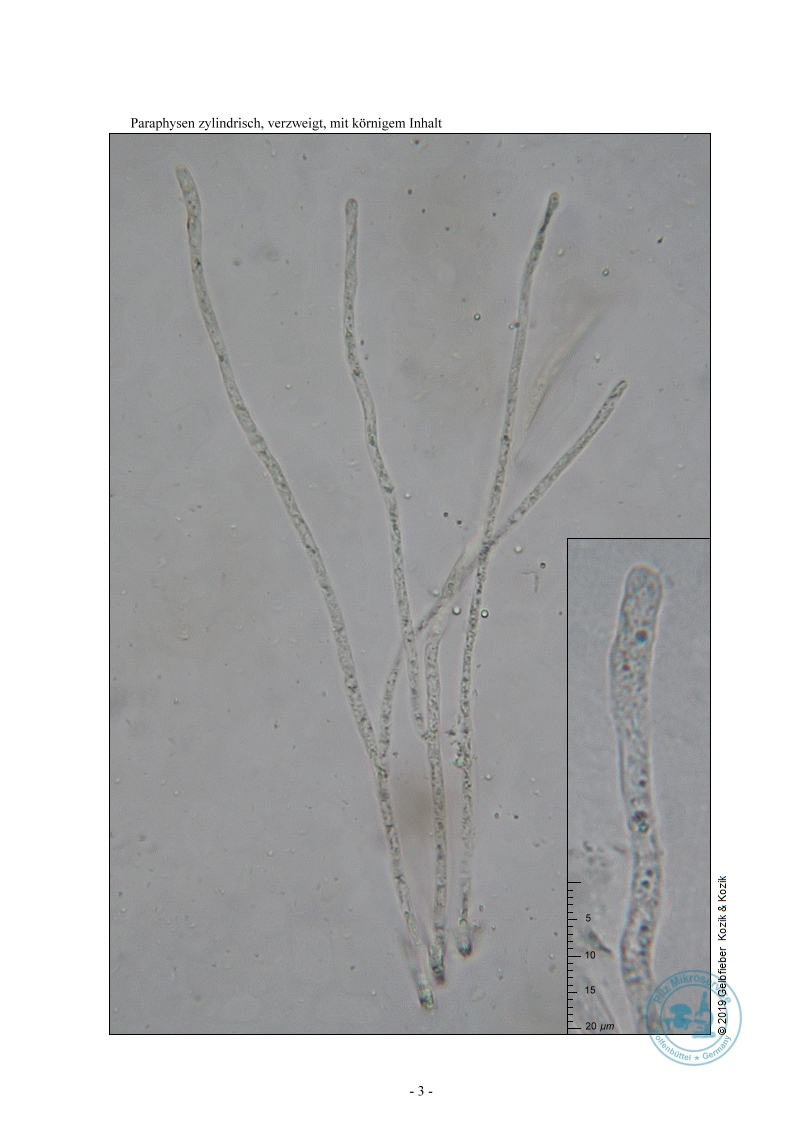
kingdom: Fungi
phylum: Ascomycota
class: Pezizomycetes
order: Pezizales
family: Pezizaceae
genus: Phylloscypha
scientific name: Phylloscypha labessiana
